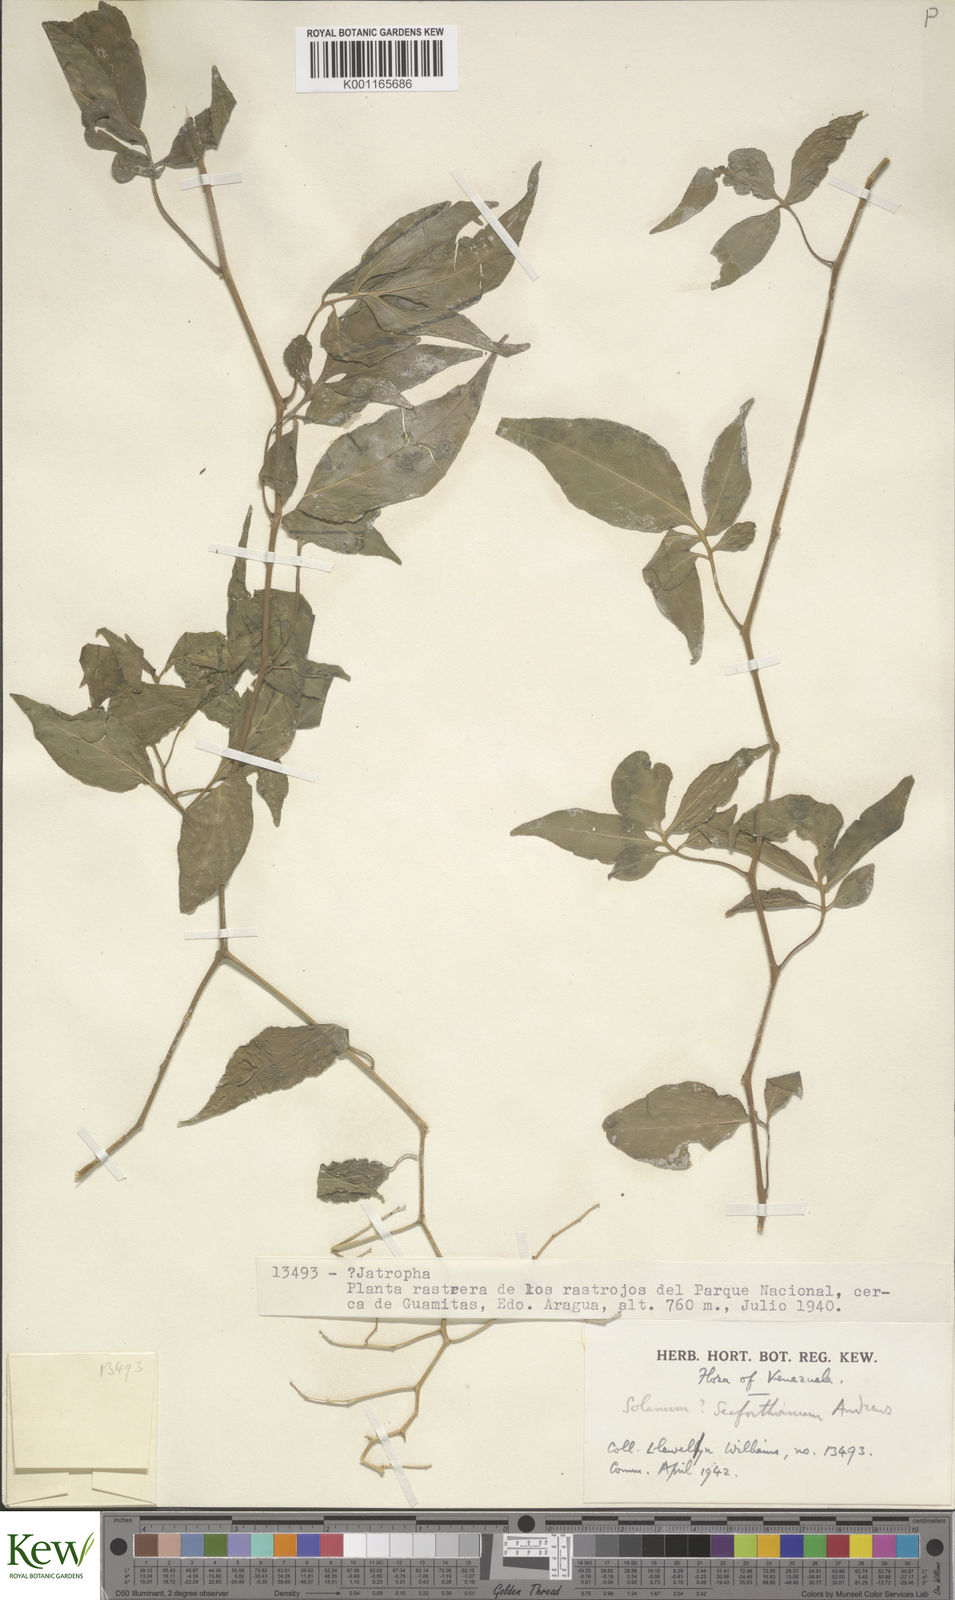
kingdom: Plantae
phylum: Tracheophyta
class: Magnoliopsida
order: Solanales
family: Solanaceae
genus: Solanum
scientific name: Solanum seaforthianum
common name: Brazilian nightshade
